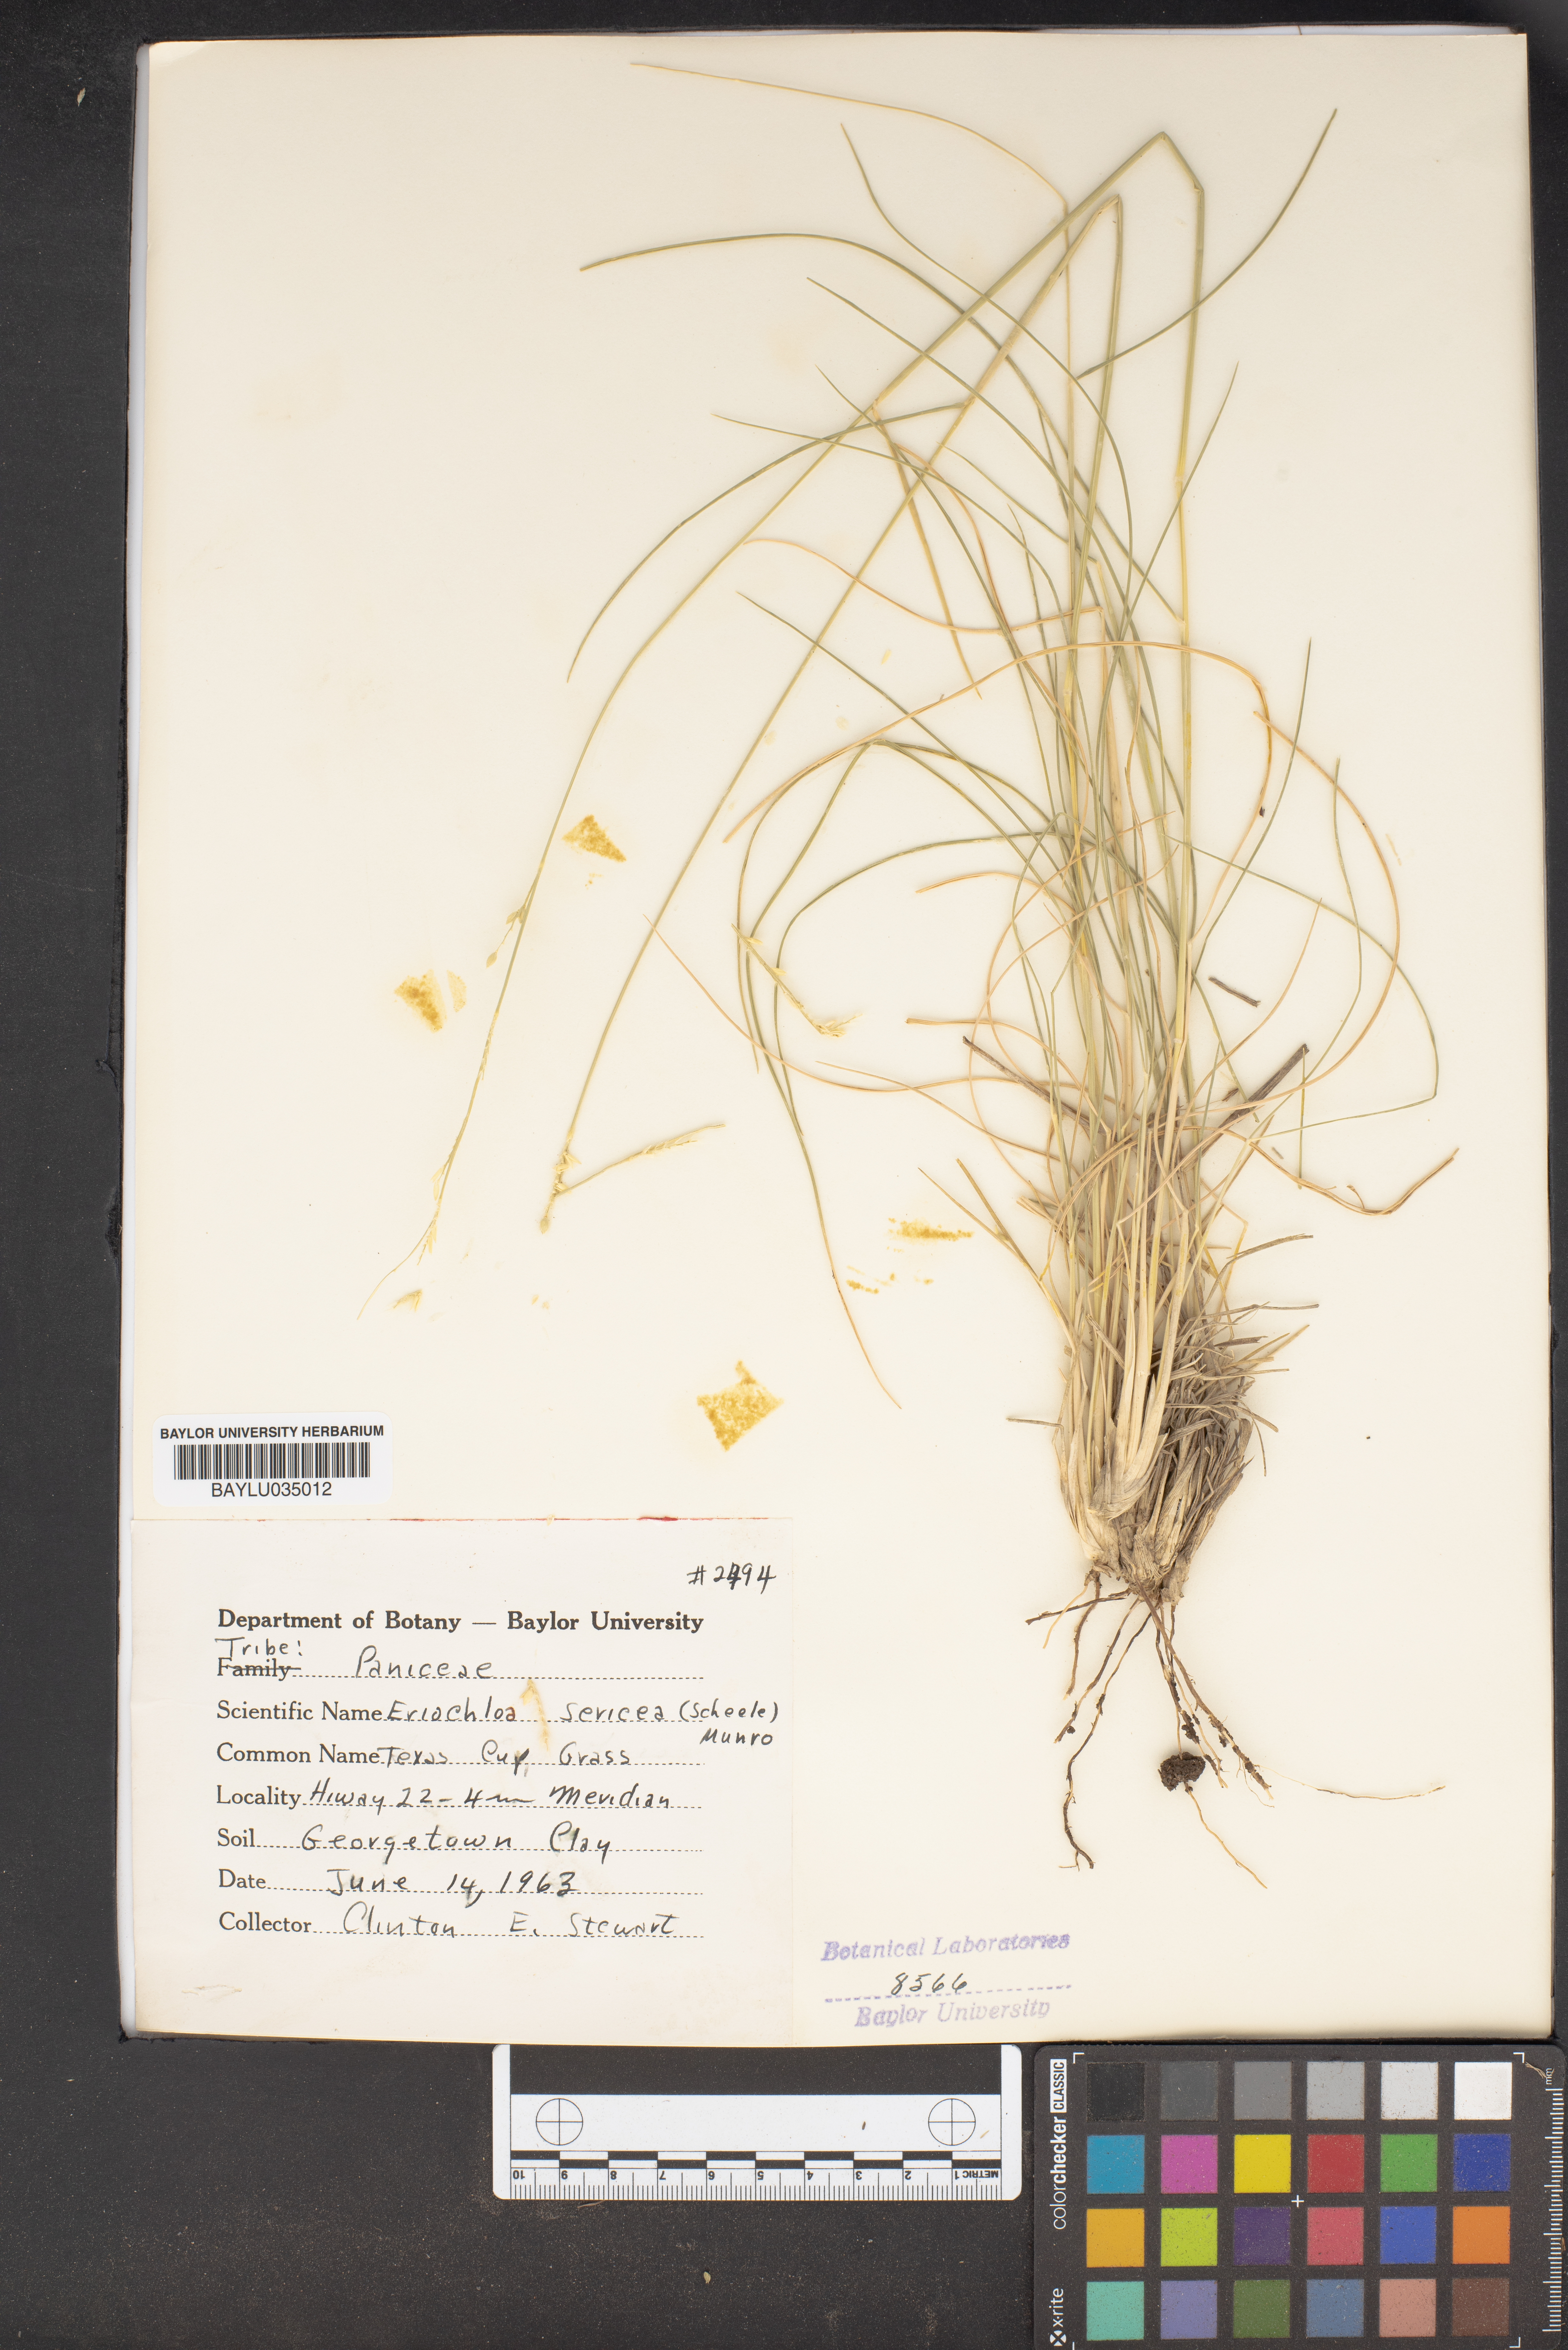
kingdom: Plantae
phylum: Tracheophyta
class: Liliopsida
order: Poales
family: Poaceae
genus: Eriochloa
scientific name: Eriochloa sericea
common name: Texas cup grass
